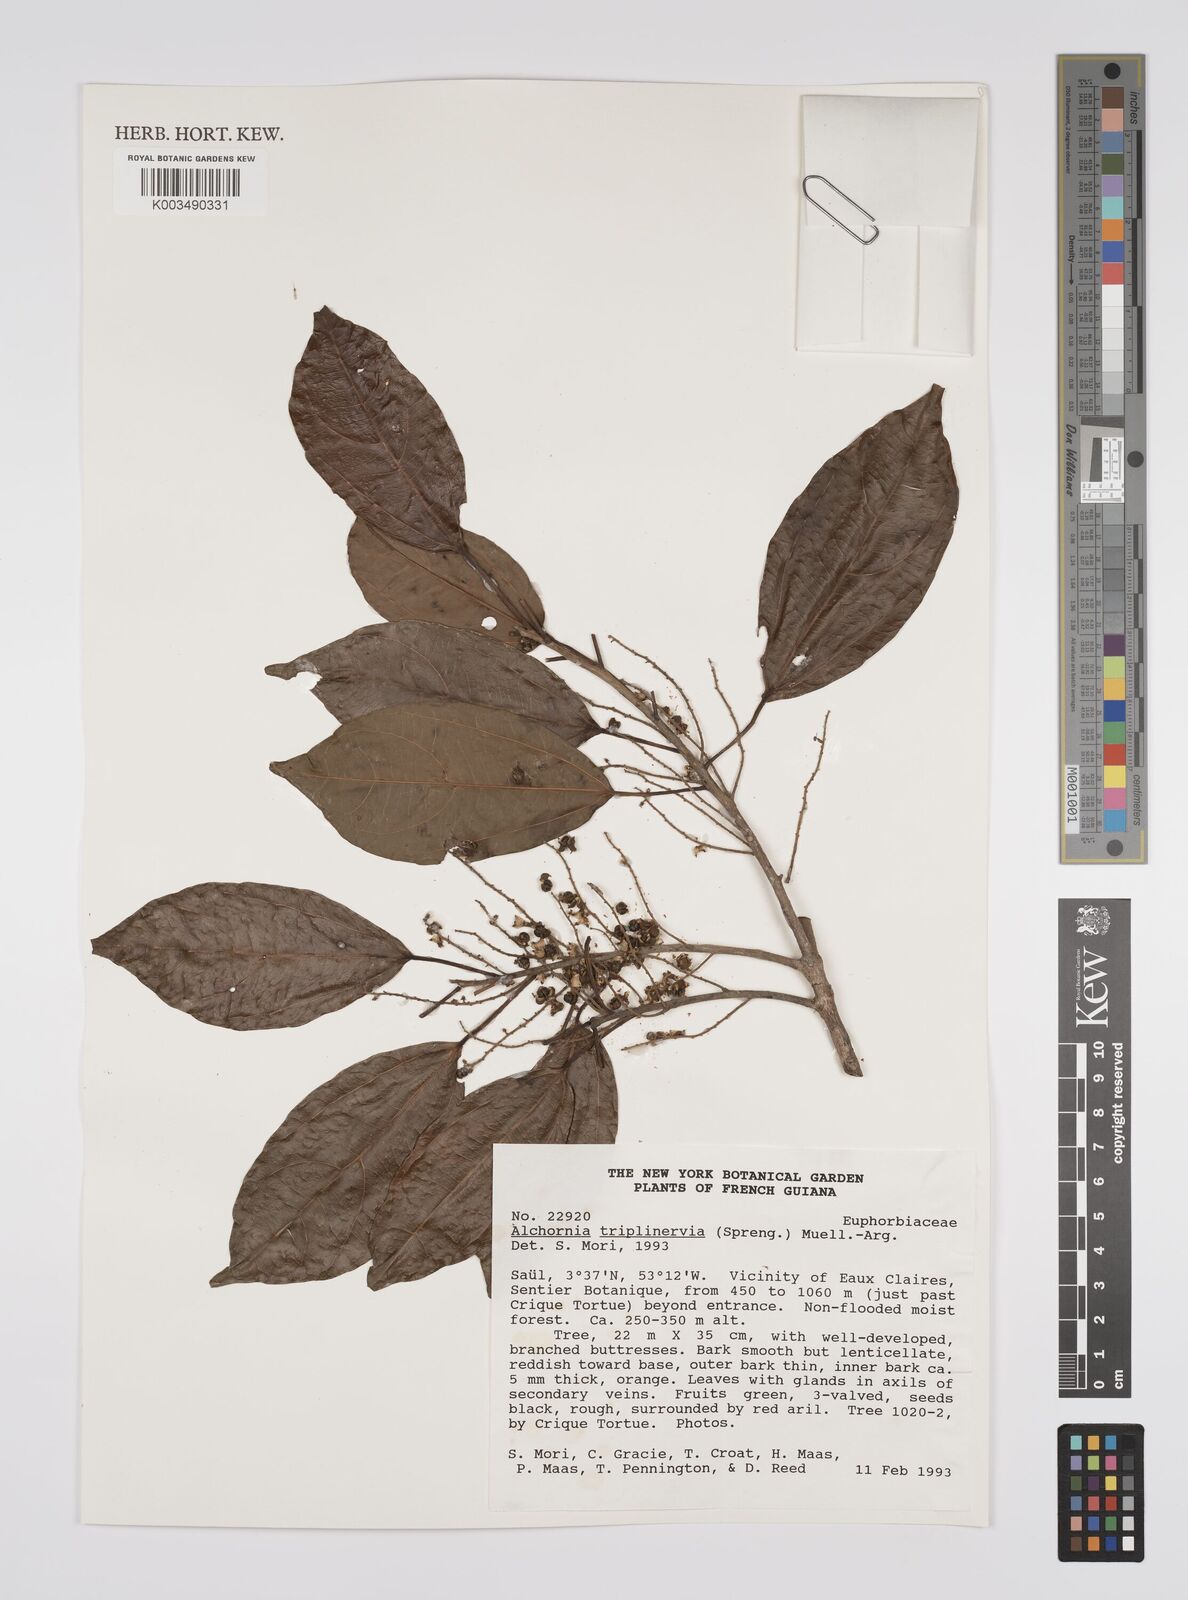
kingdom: Plantae
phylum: Tracheophyta
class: Magnoliopsida
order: Malpighiales
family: Euphorbiaceae
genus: Alchornea
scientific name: Alchornea triplinervia
